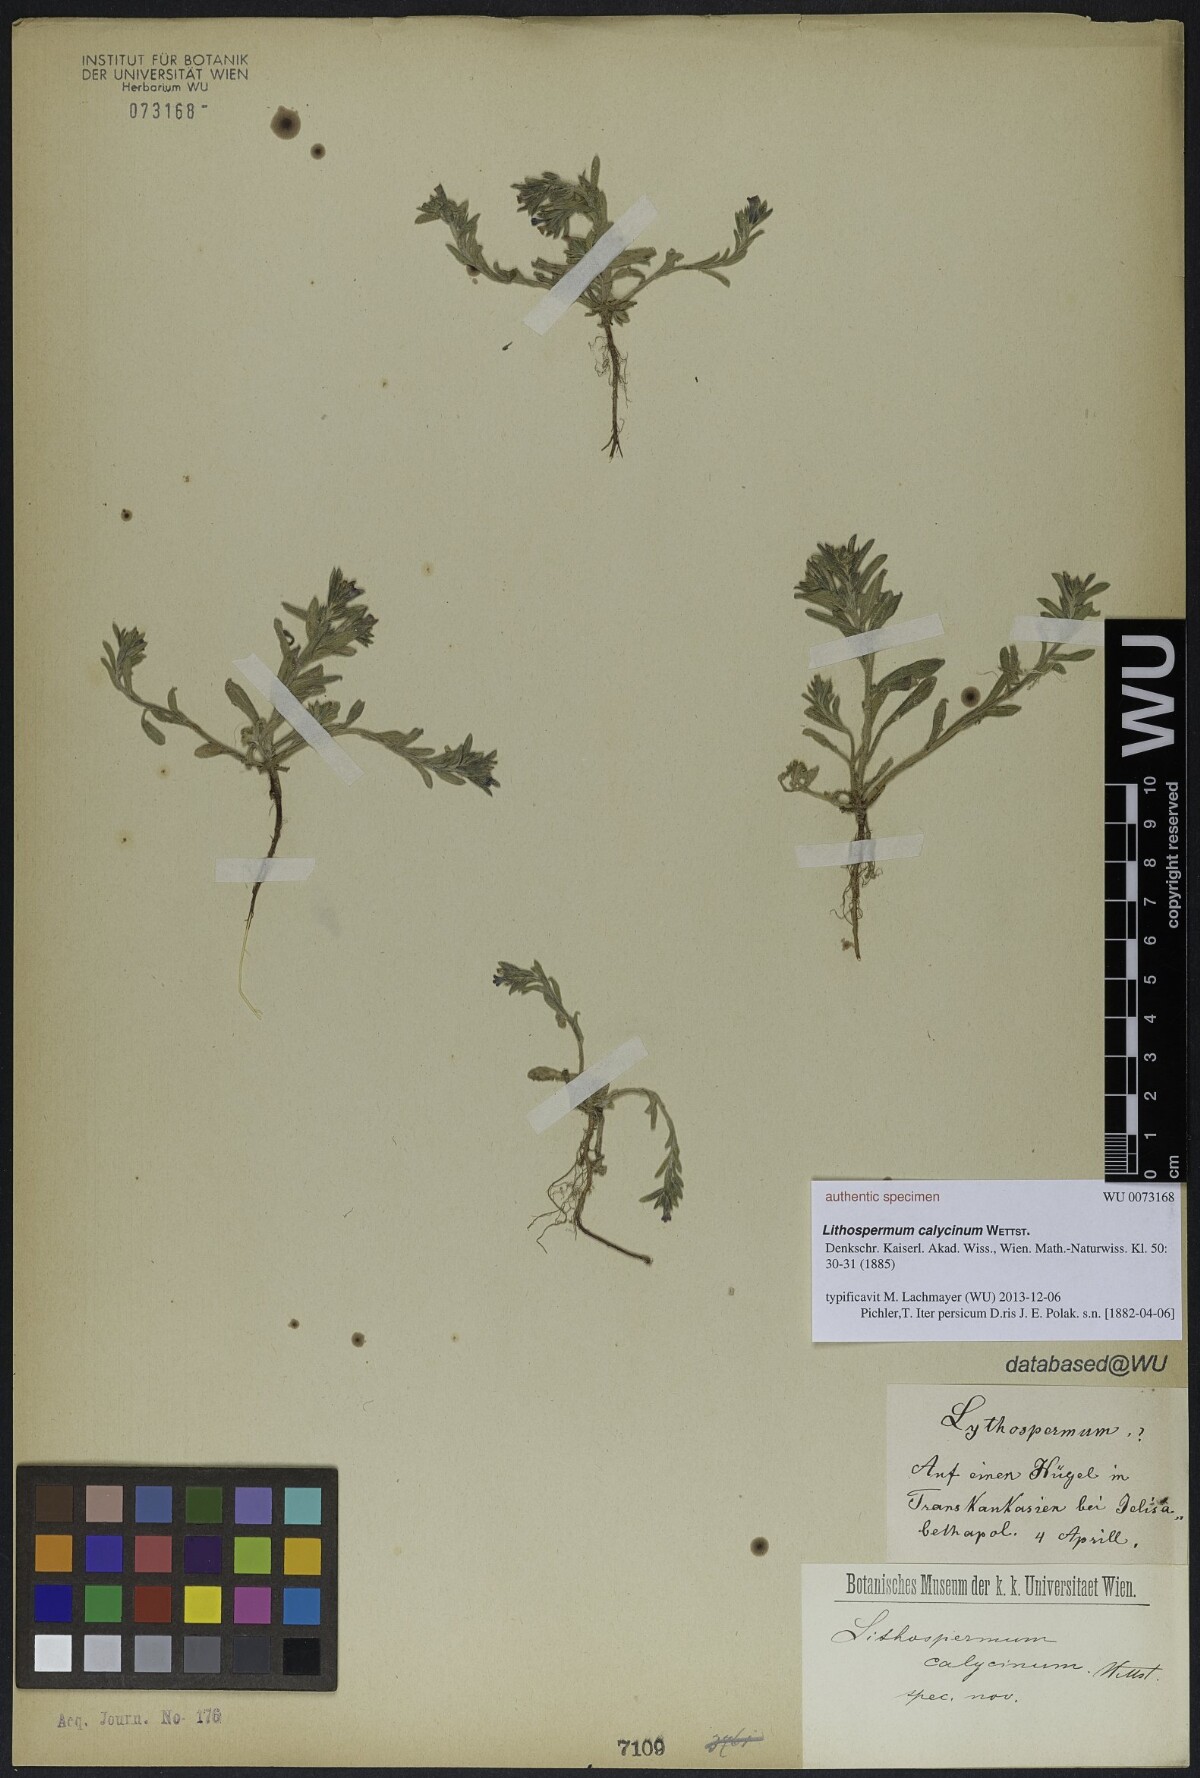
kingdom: Plantae
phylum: Tracheophyta
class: Magnoliopsida
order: Boraginales
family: Boraginaceae
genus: Buglossoides
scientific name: Buglossoides arvensis
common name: Corn gromwell
